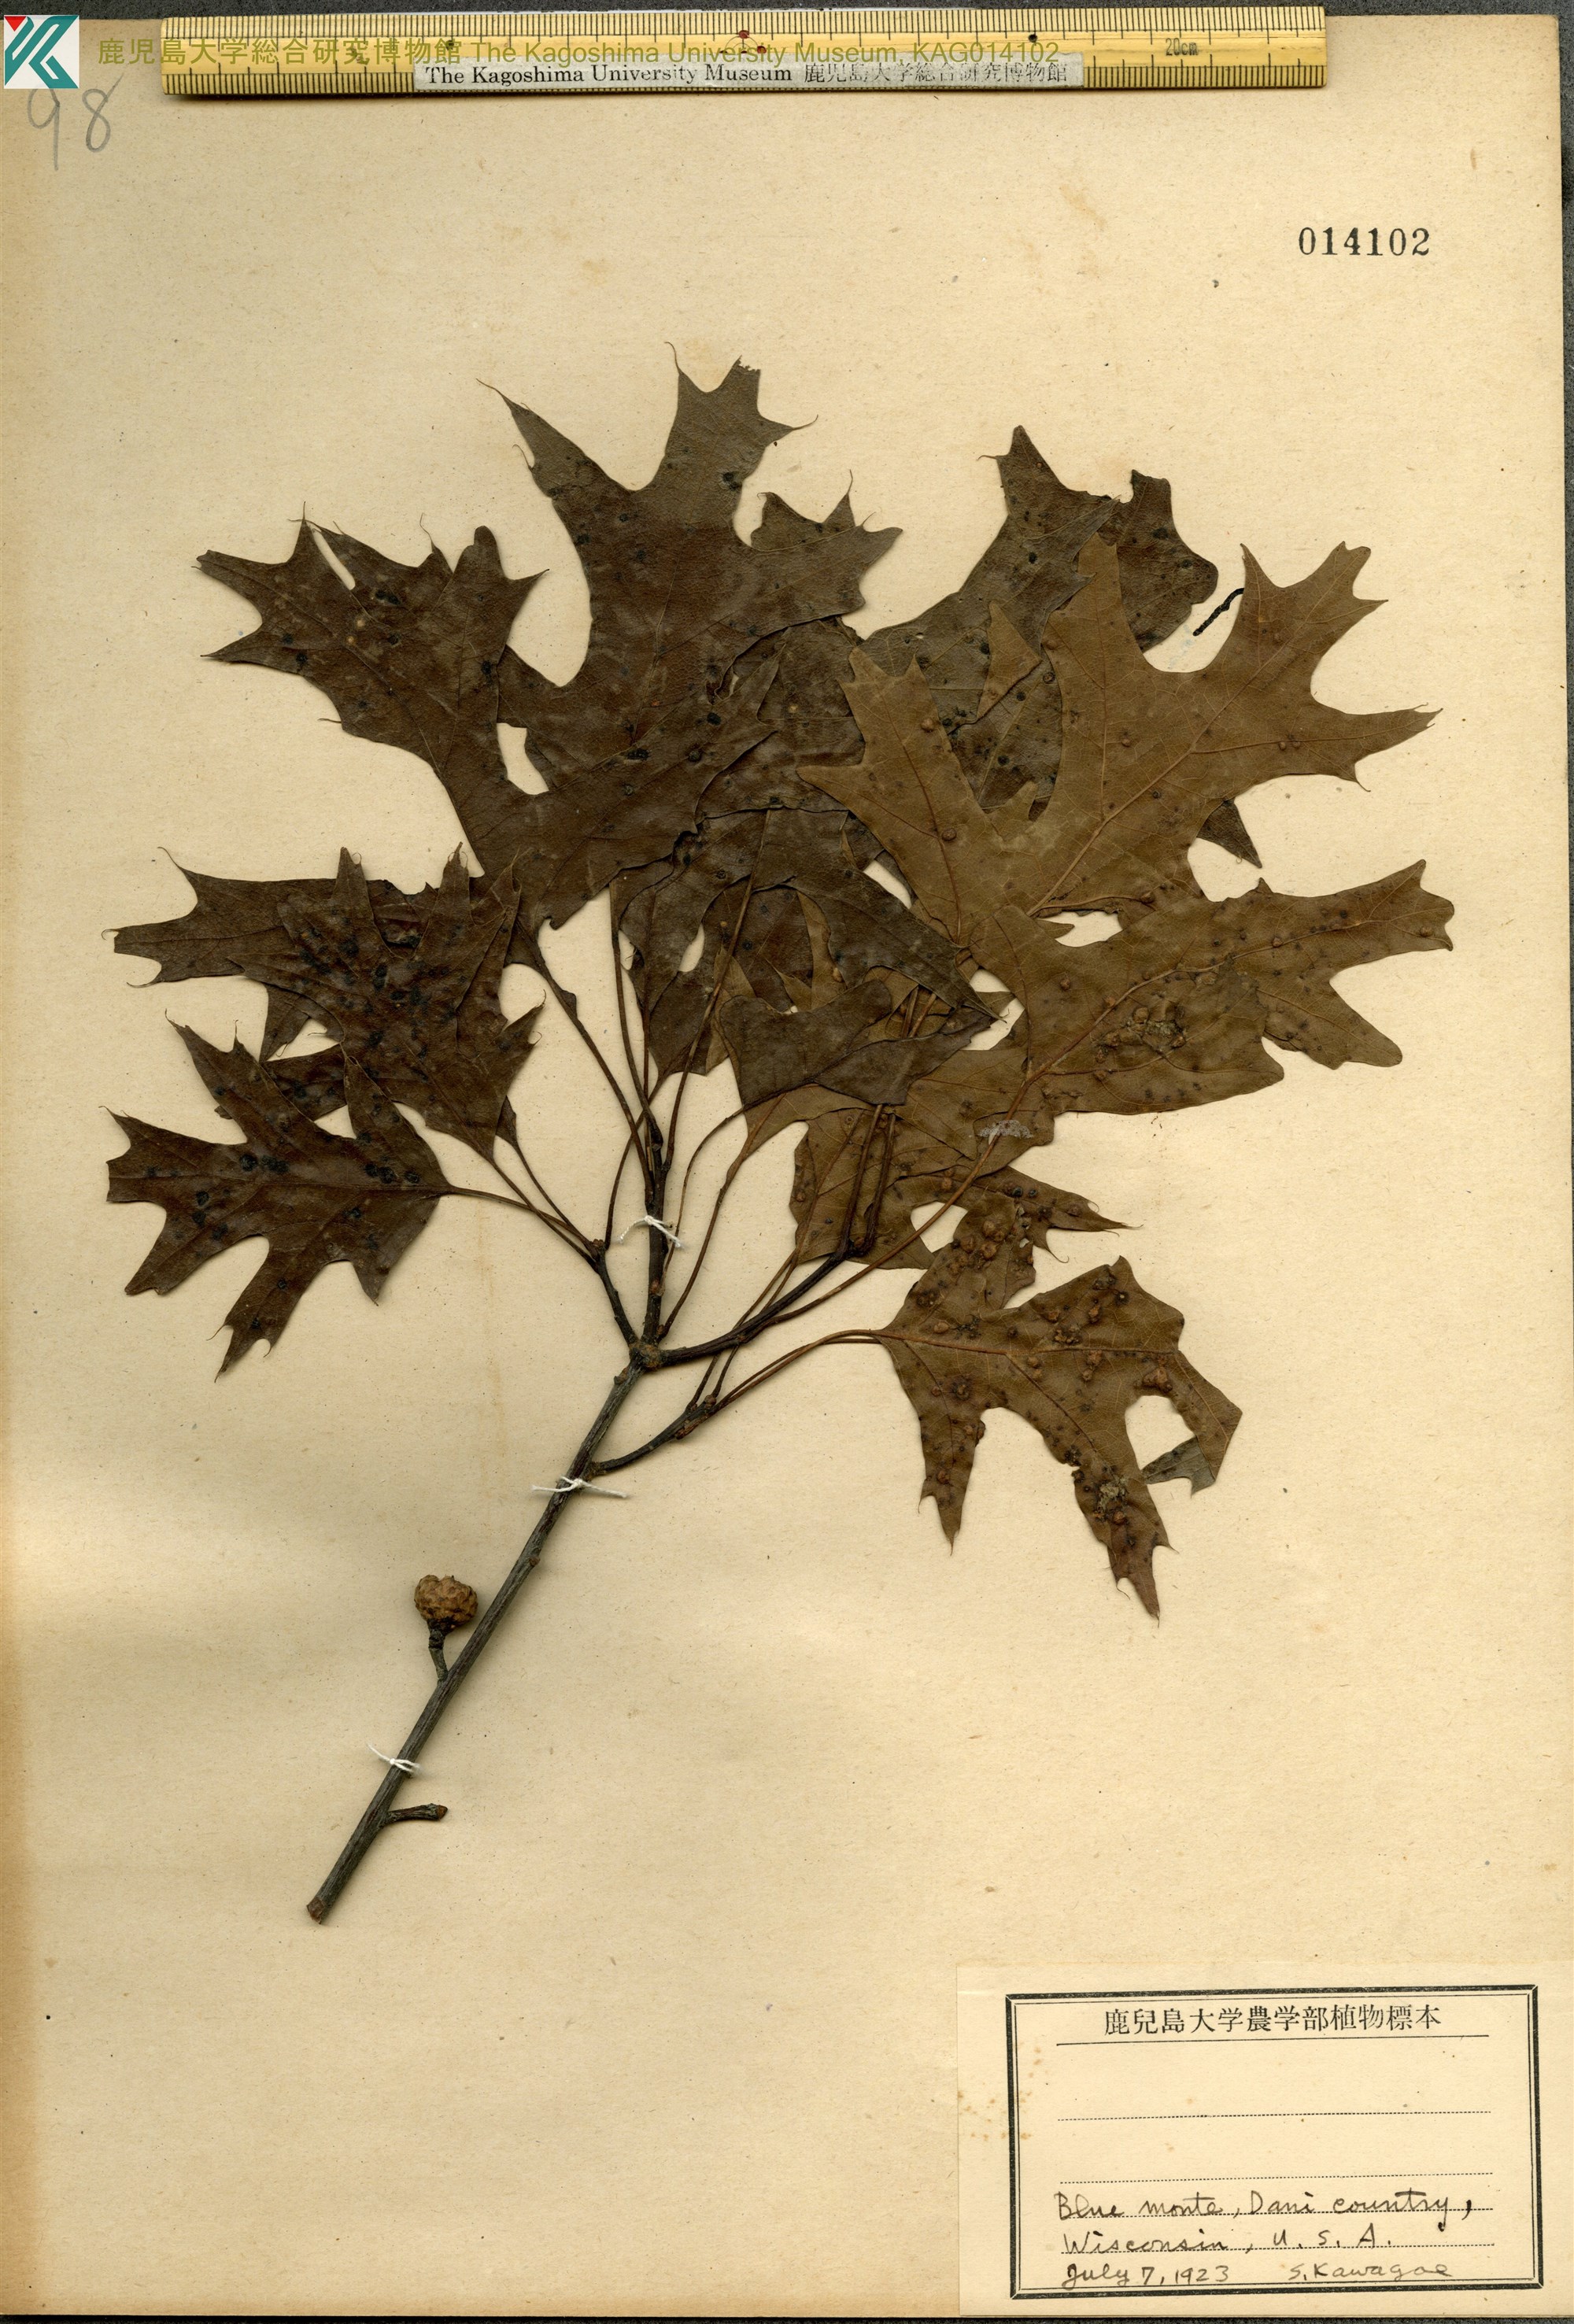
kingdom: Plantae
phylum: Tracheophyta
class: Magnoliopsida
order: Fagales
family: Fagaceae
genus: Quercus
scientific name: Quercus palustris
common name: Pin oak
